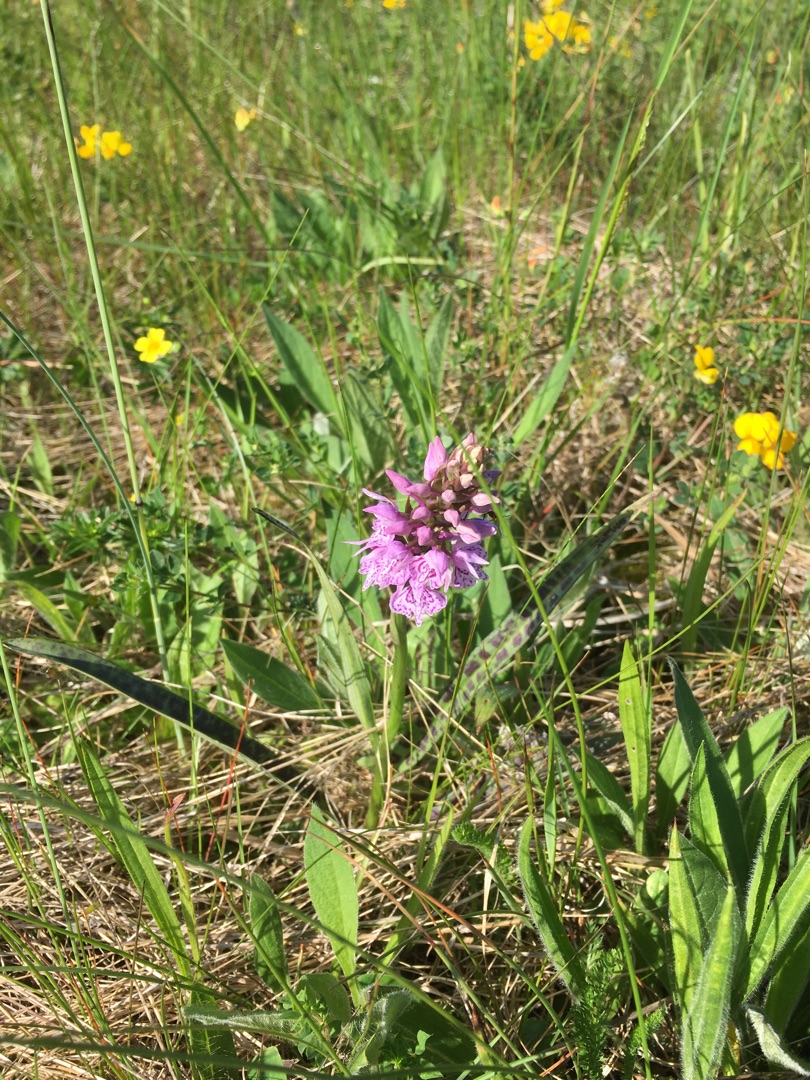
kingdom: Plantae
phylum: Tracheophyta
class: Liliopsida
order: Asparagales
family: Orchidaceae
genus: Dactylorhiza
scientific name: Dactylorhiza maculata
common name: Plettet gøgeurt
